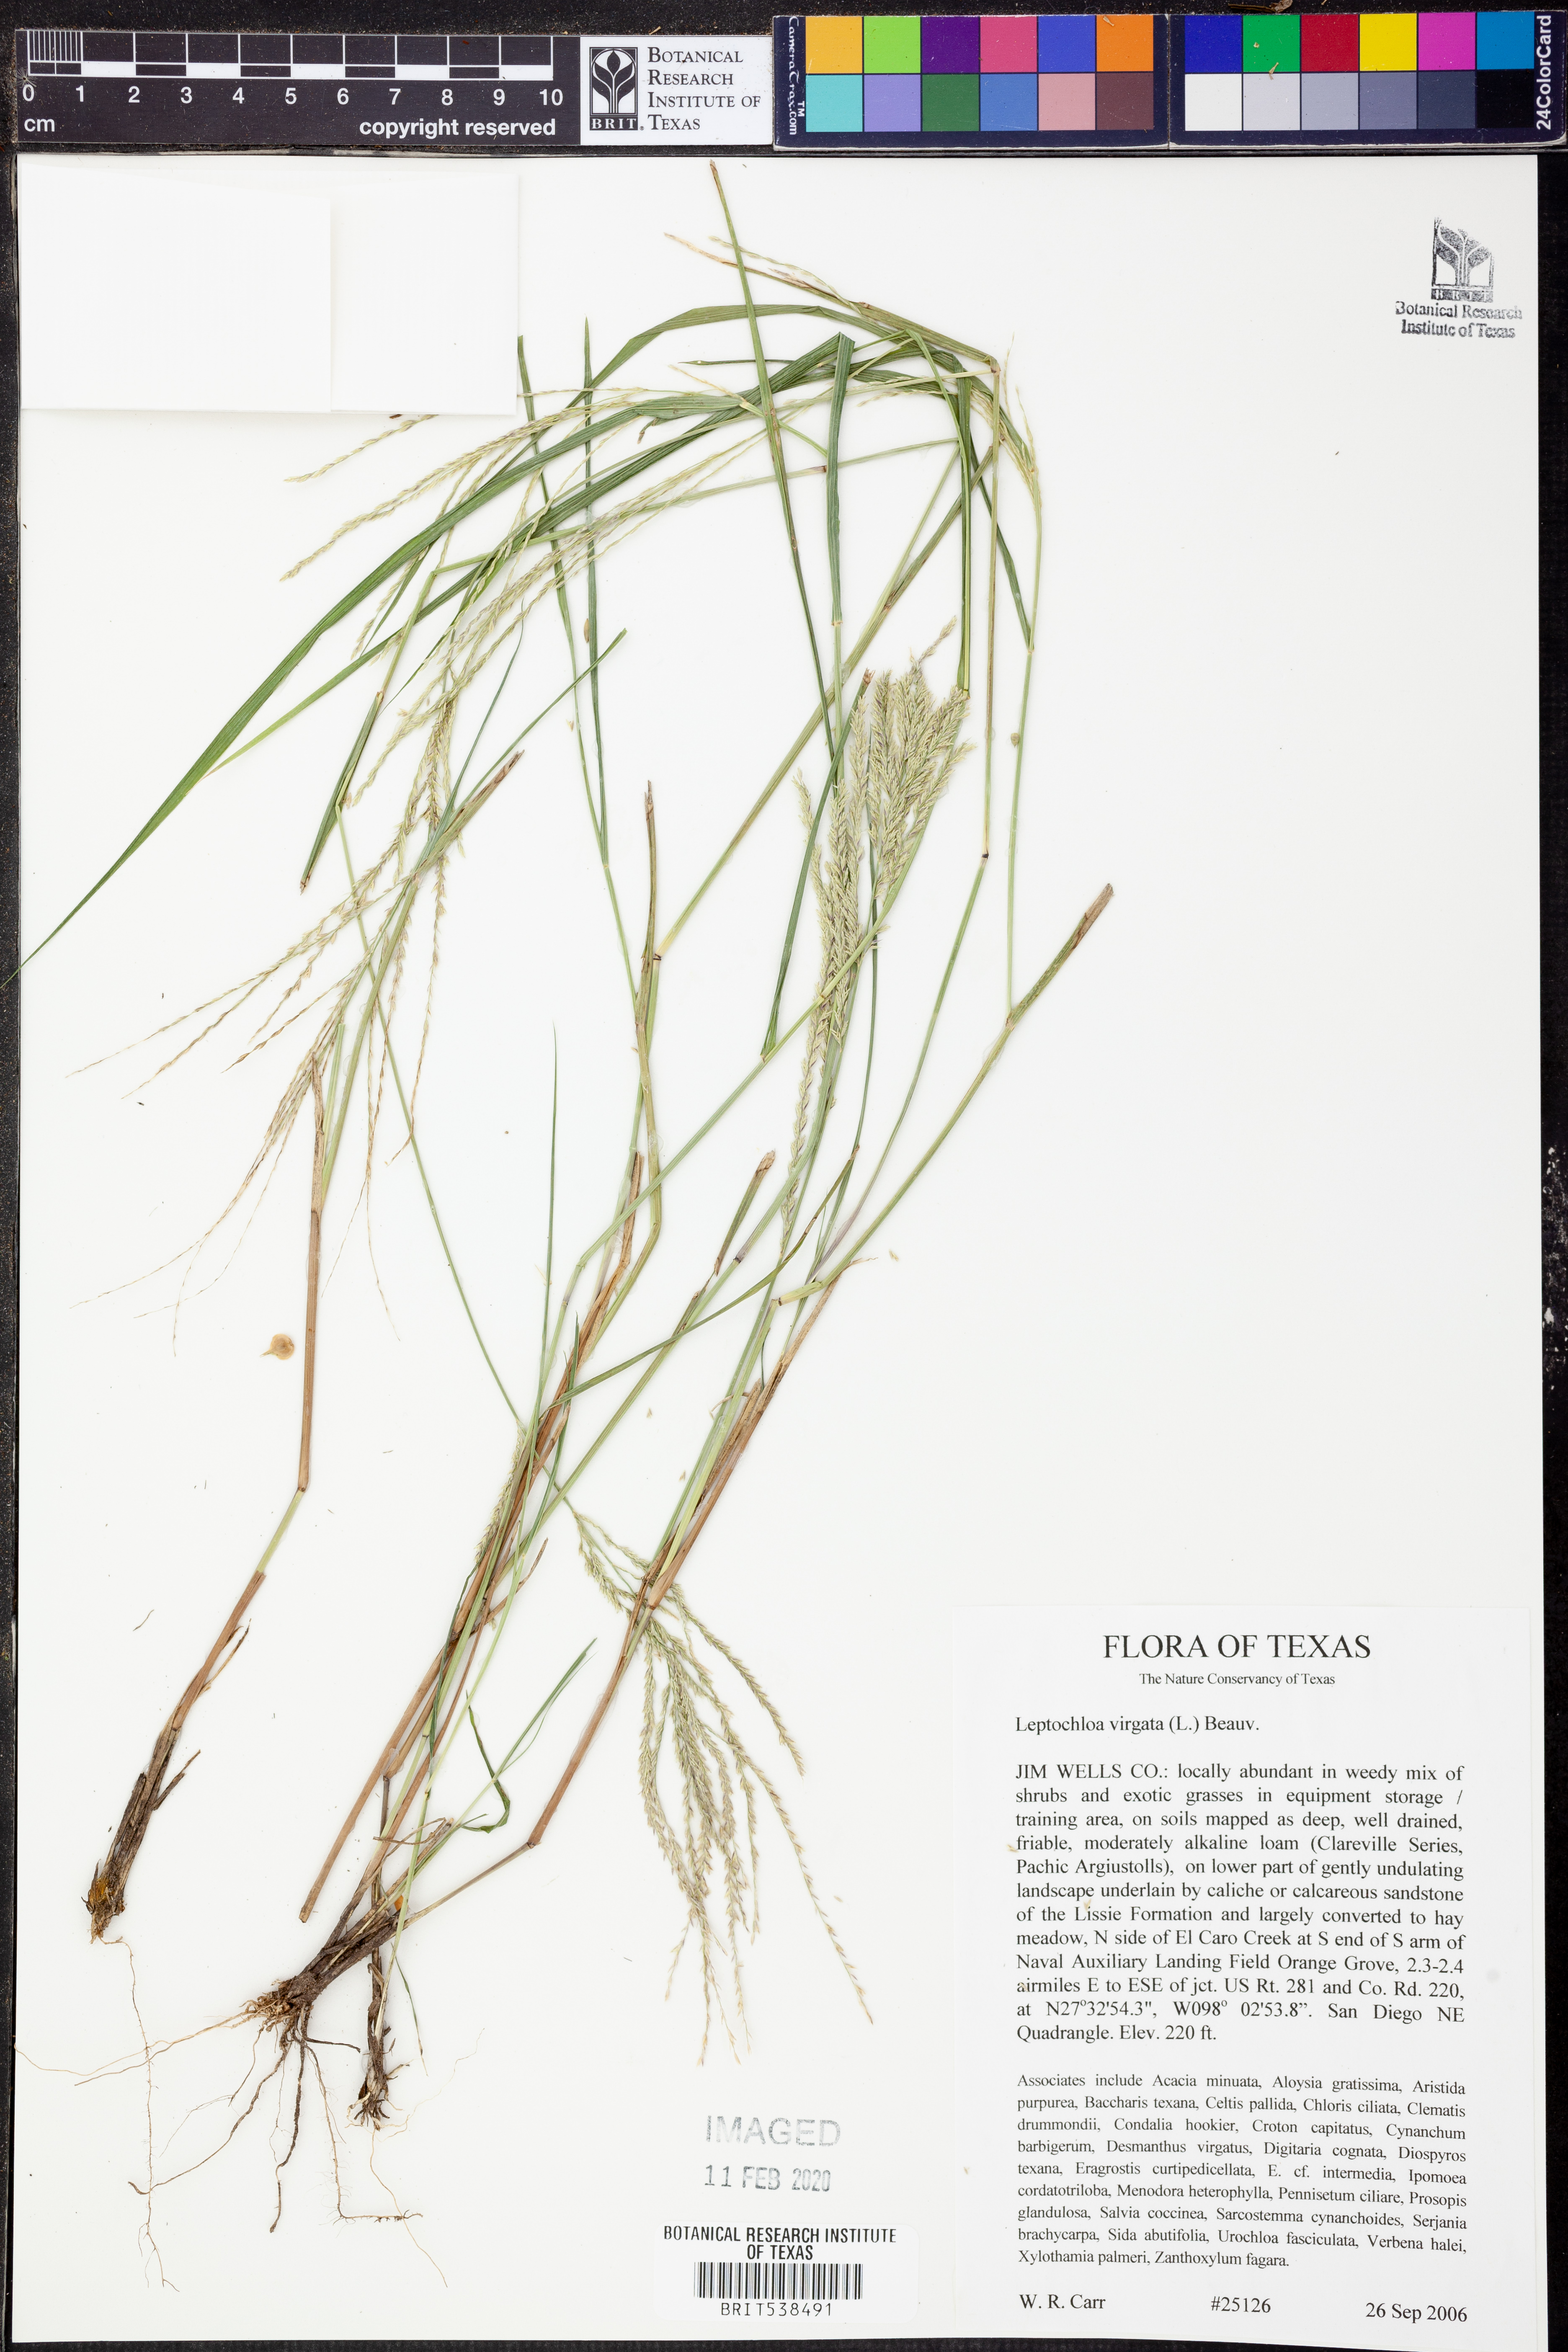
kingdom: Plantae
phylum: Tracheophyta
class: Liliopsida
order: Poales
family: Poaceae
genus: Dinebra
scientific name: Dinebra polystachyos
